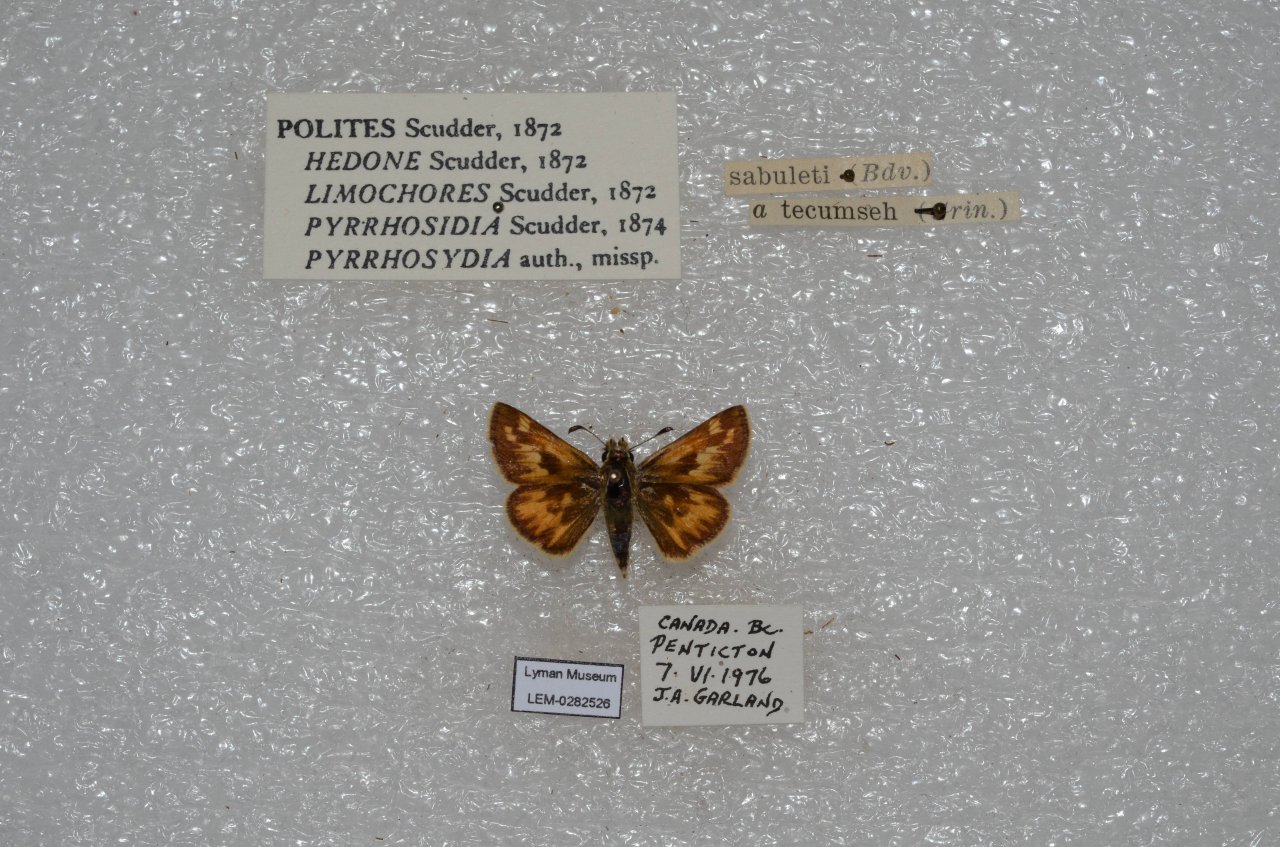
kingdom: Animalia
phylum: Arthropoda
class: Insecta
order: Lepidoptera
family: Hesperiidae
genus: Polites
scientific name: Polites sabuleti
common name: Sandhill Skipper
